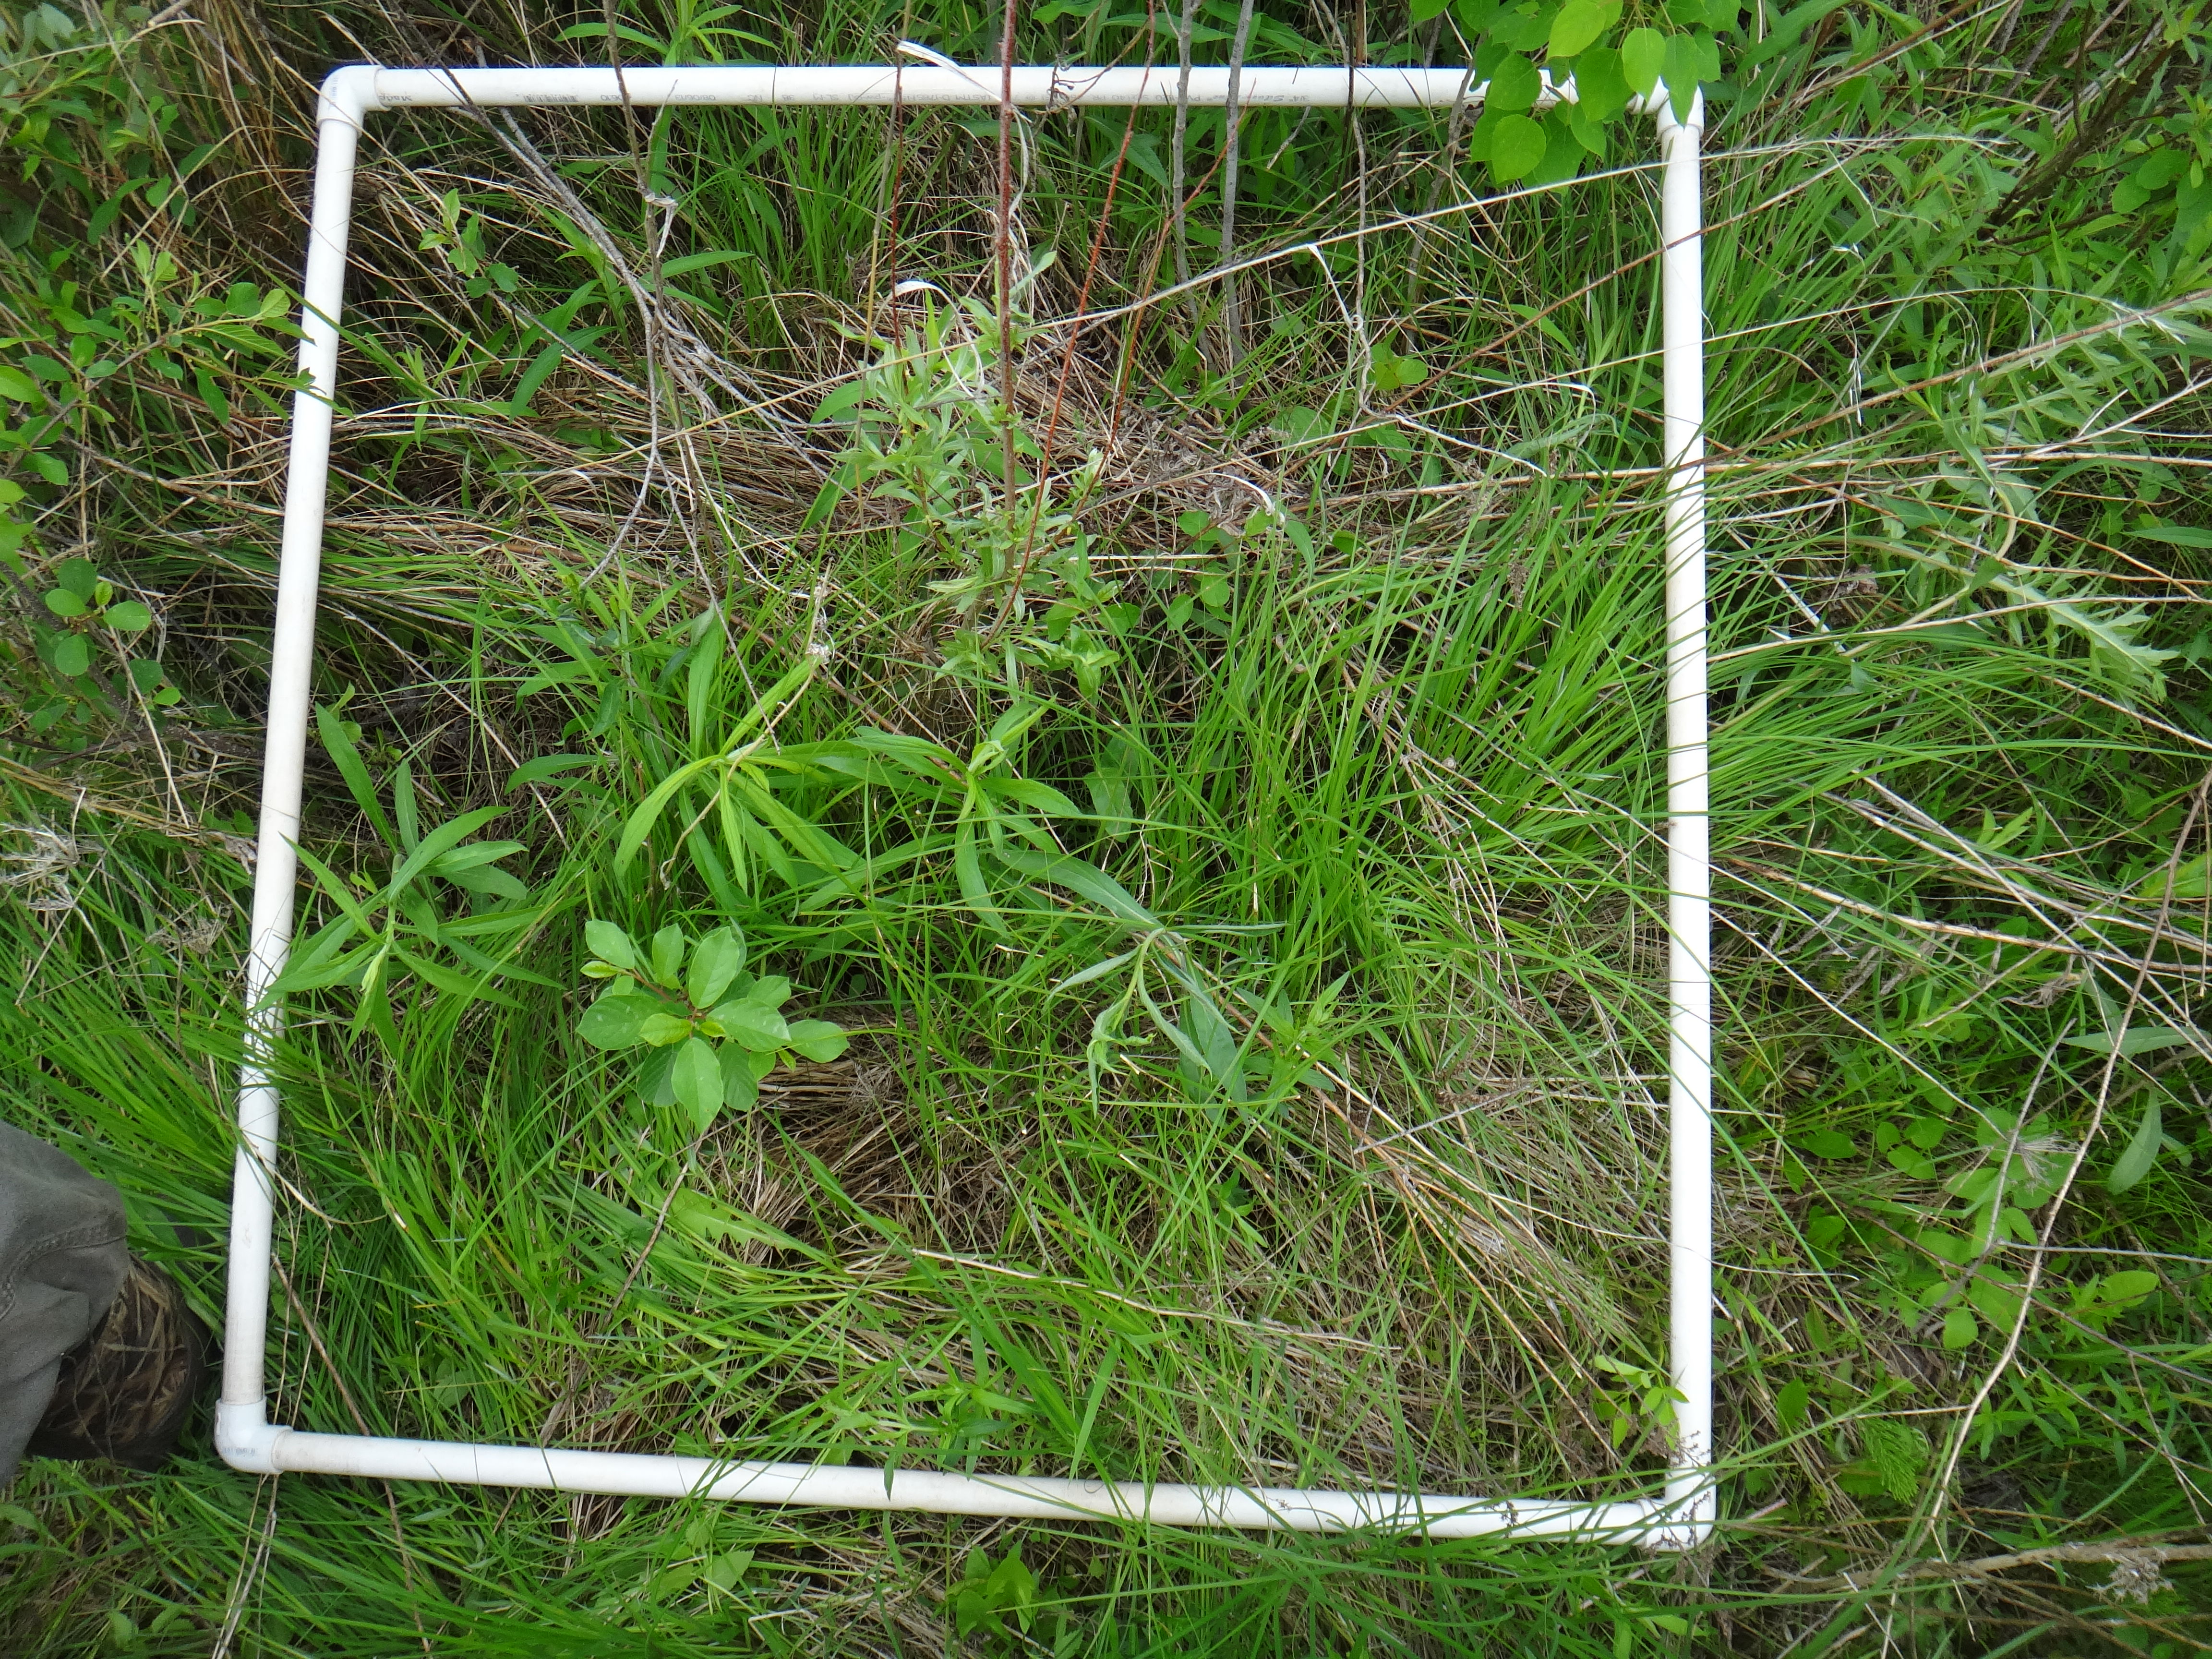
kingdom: Plantae
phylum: Tracheophyta
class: Magnoliopsida
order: Asterales
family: Asteraceae
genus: Solidago
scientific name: Solidago canadensis
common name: Canada goldenrod
